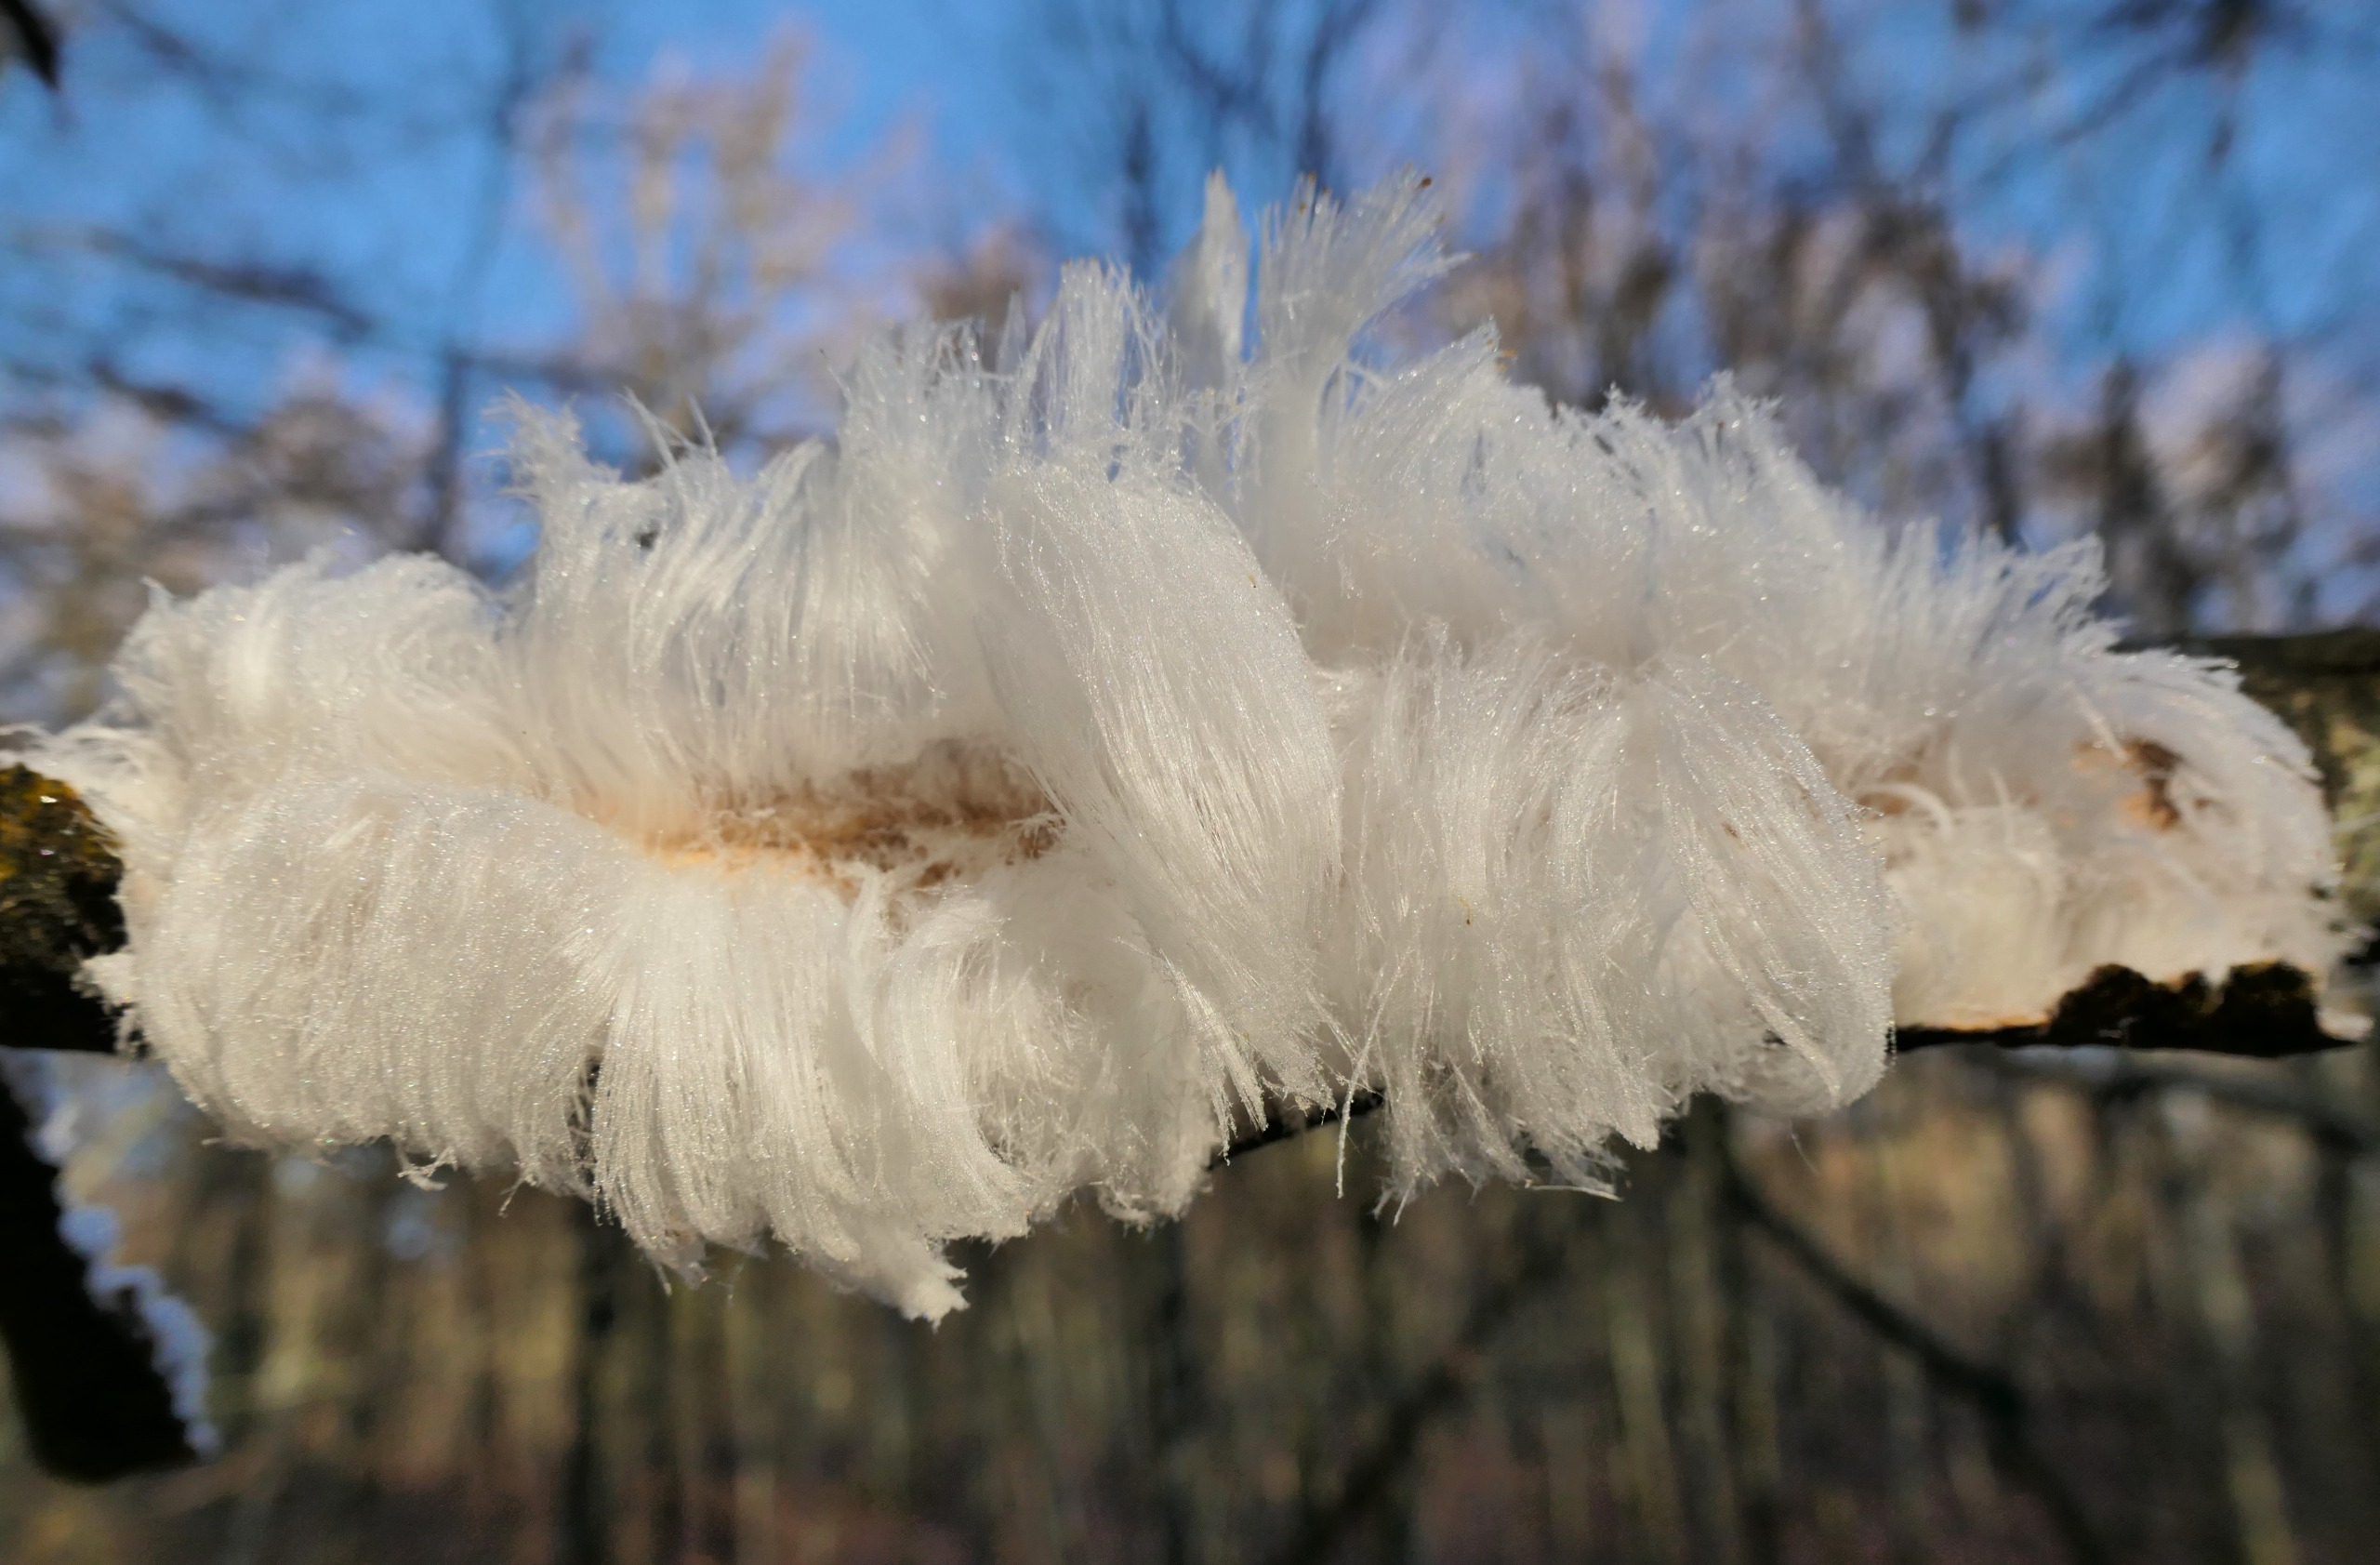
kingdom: Fungi
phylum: Basidiomycota
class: Tremellomycetes
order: Tremellales
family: Exidiaceae
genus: Exidiopsis
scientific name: Exidiopsis effusa
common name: Smuk bævrehinde
